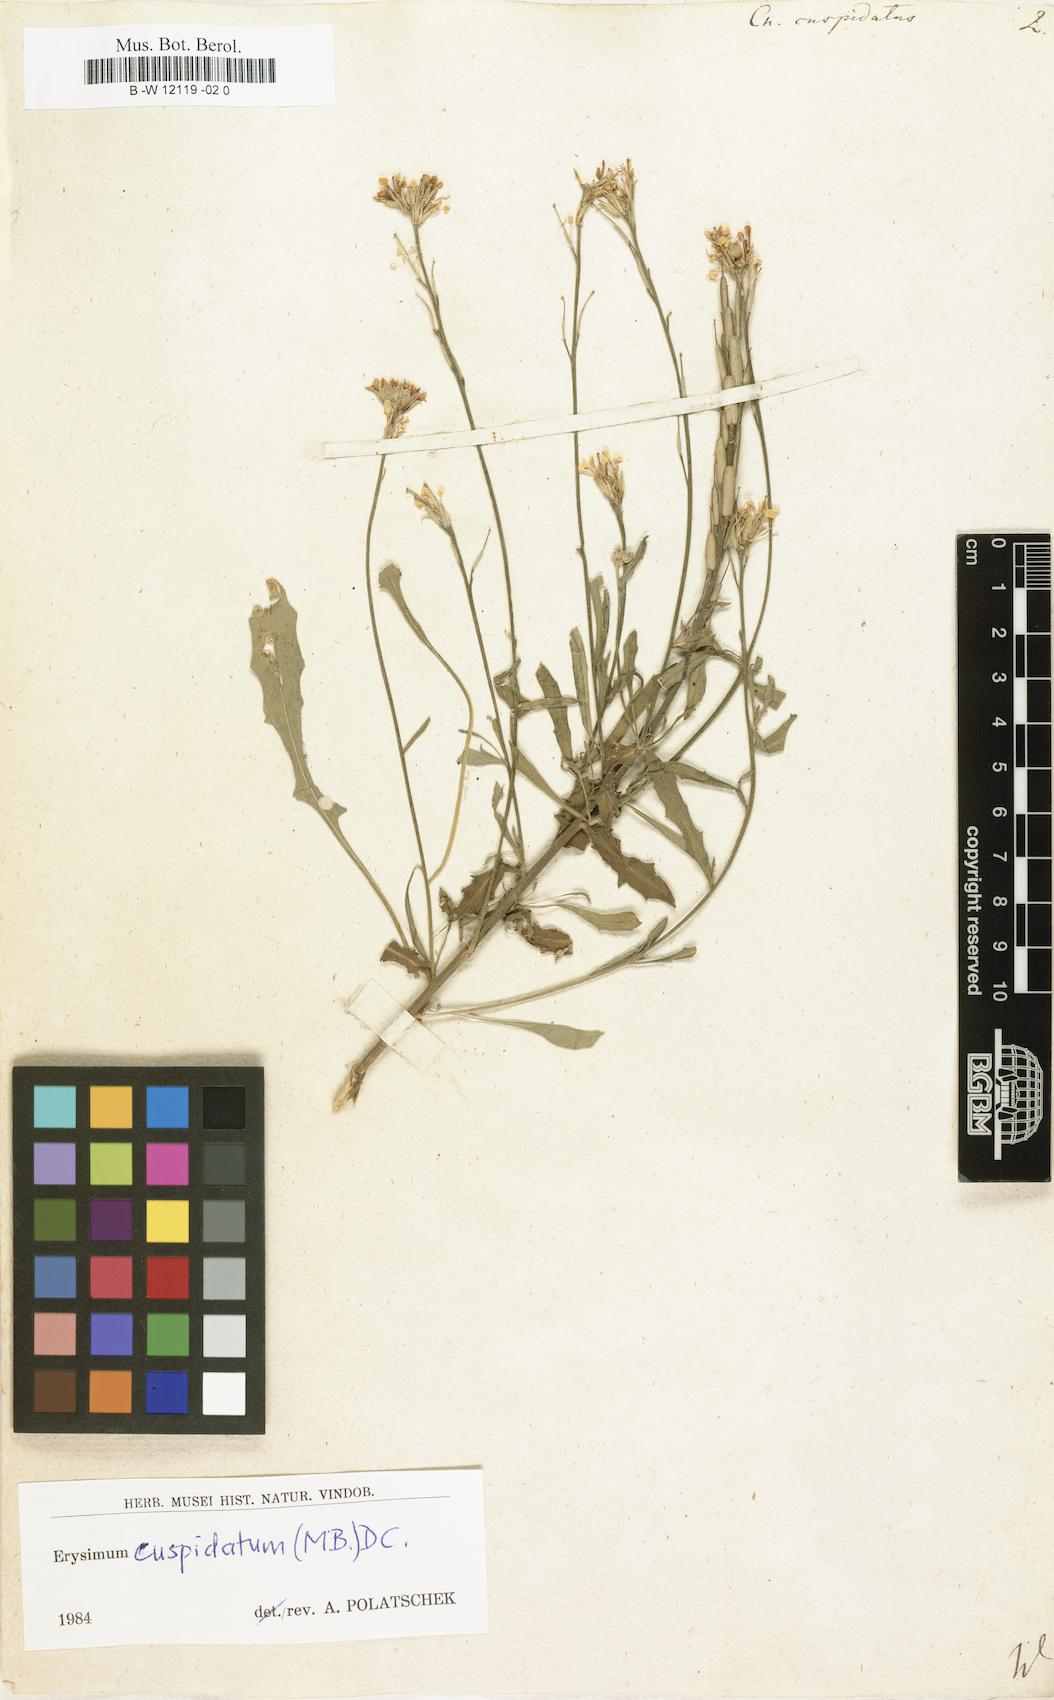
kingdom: Plantae
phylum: Tracheophyta
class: Magnoliopsida
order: Brassicales
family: Brassicaceae
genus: Erysimum
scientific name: Erysimum cuspidatum
